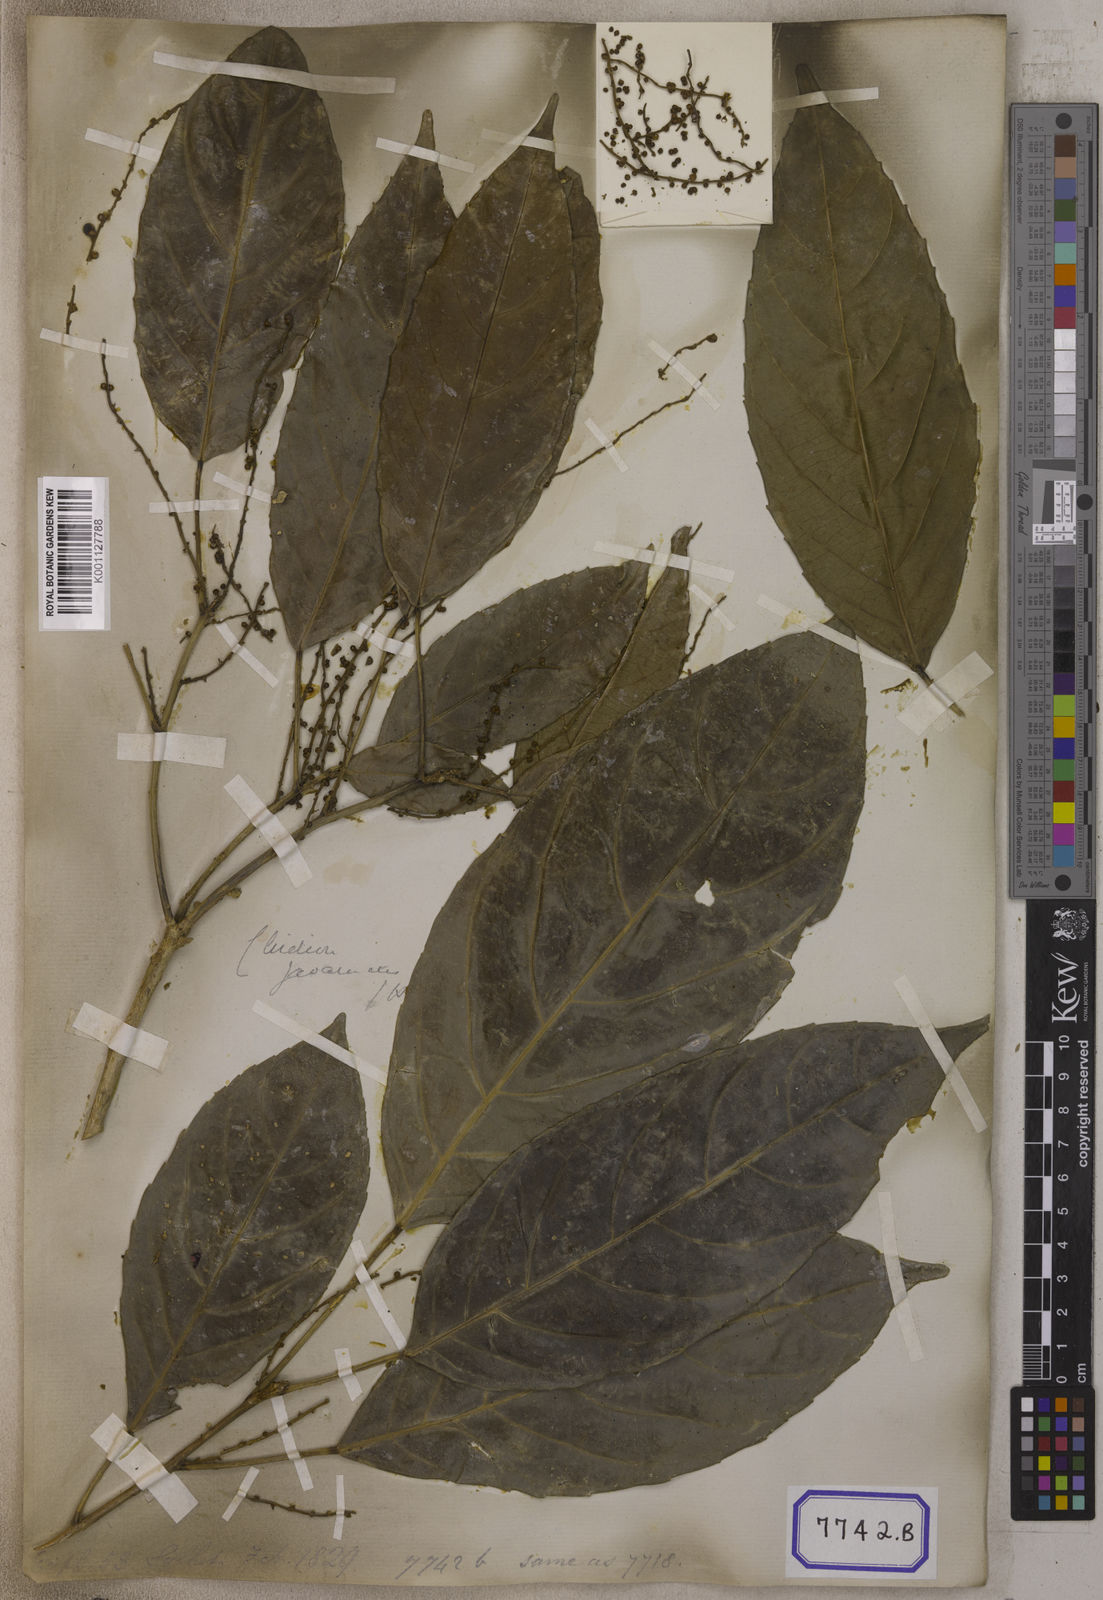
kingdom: Plantae
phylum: Tracheophyta
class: Magnoliopsida
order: Malpighiales
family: Euphorbiaceae
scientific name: Euphorbiaceae
